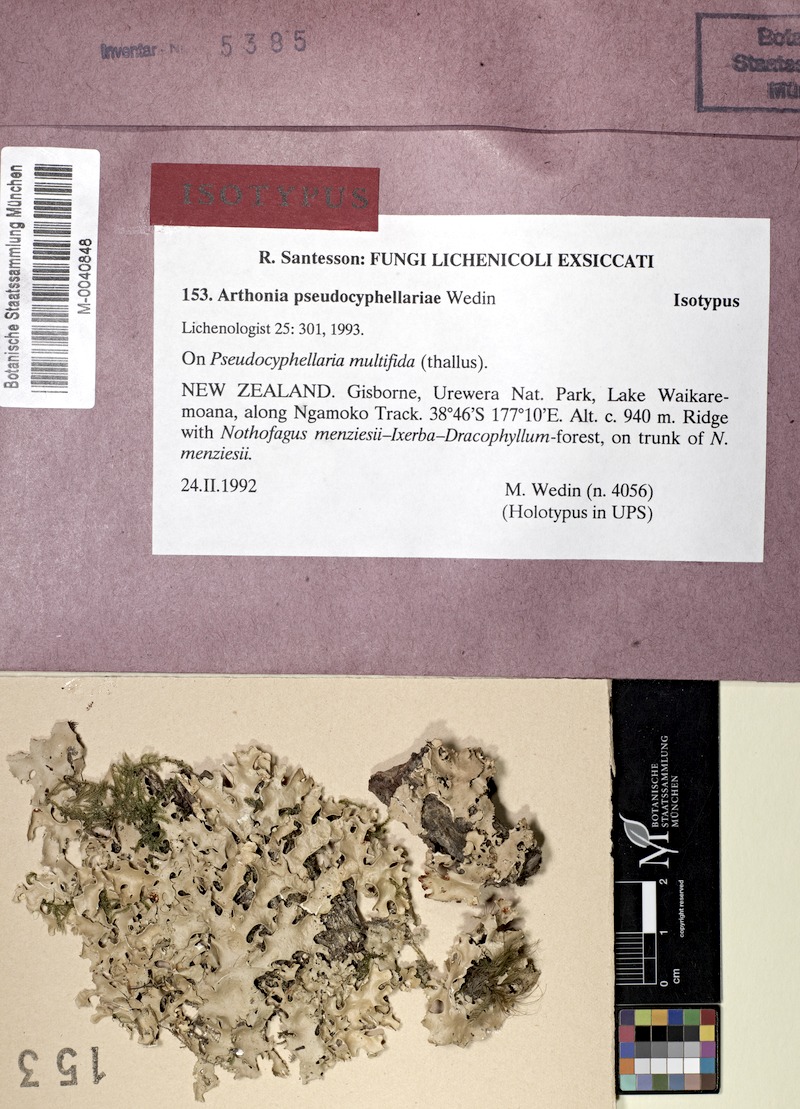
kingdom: Fungi
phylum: Ascomycota
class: Lecanoromycetes
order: Peltigerales
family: Lobariaceae
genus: Pseudocyphellaria
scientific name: Pseudocyphellaria multifida
